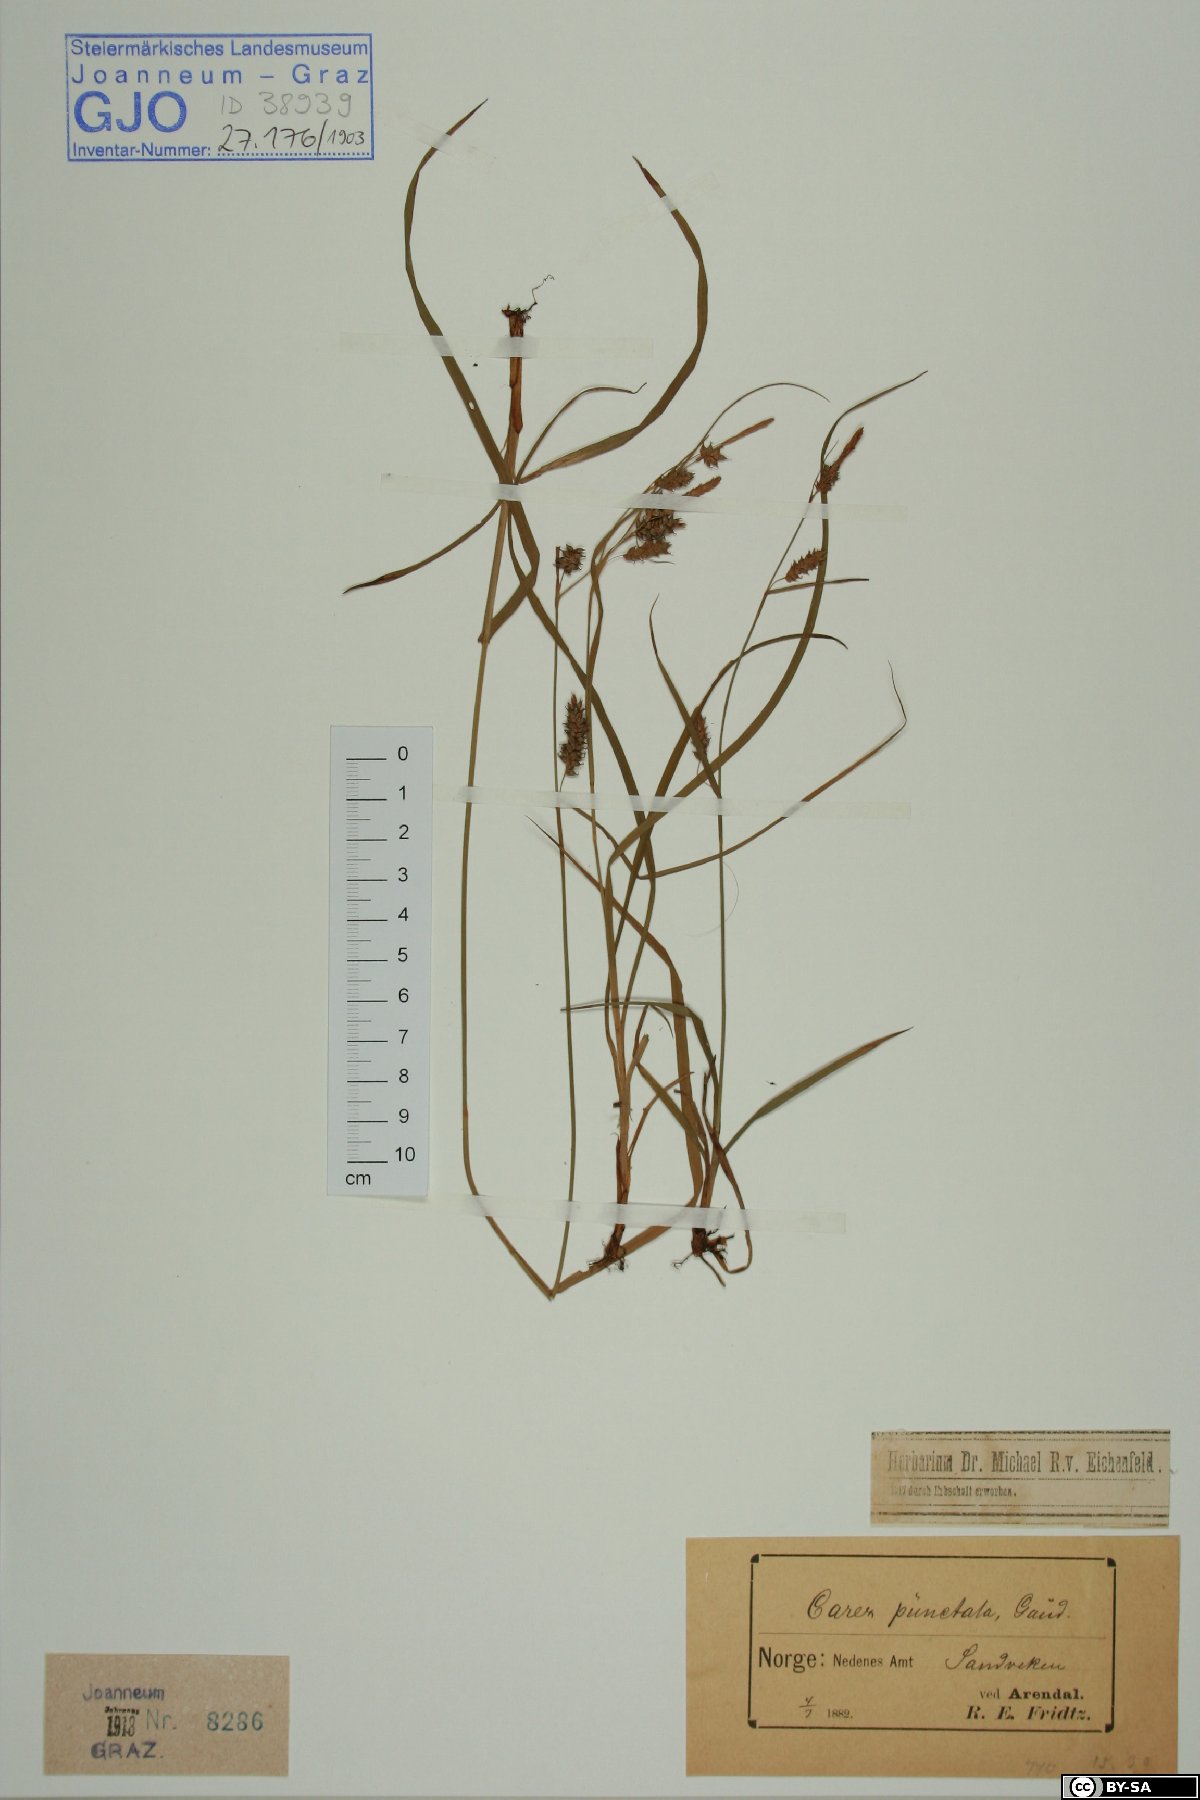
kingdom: Plantae
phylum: Tracheophyta
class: Liliopsida
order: Poales
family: Cyperaceae
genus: Carex
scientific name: Carex punctata
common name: Dotted sedge
